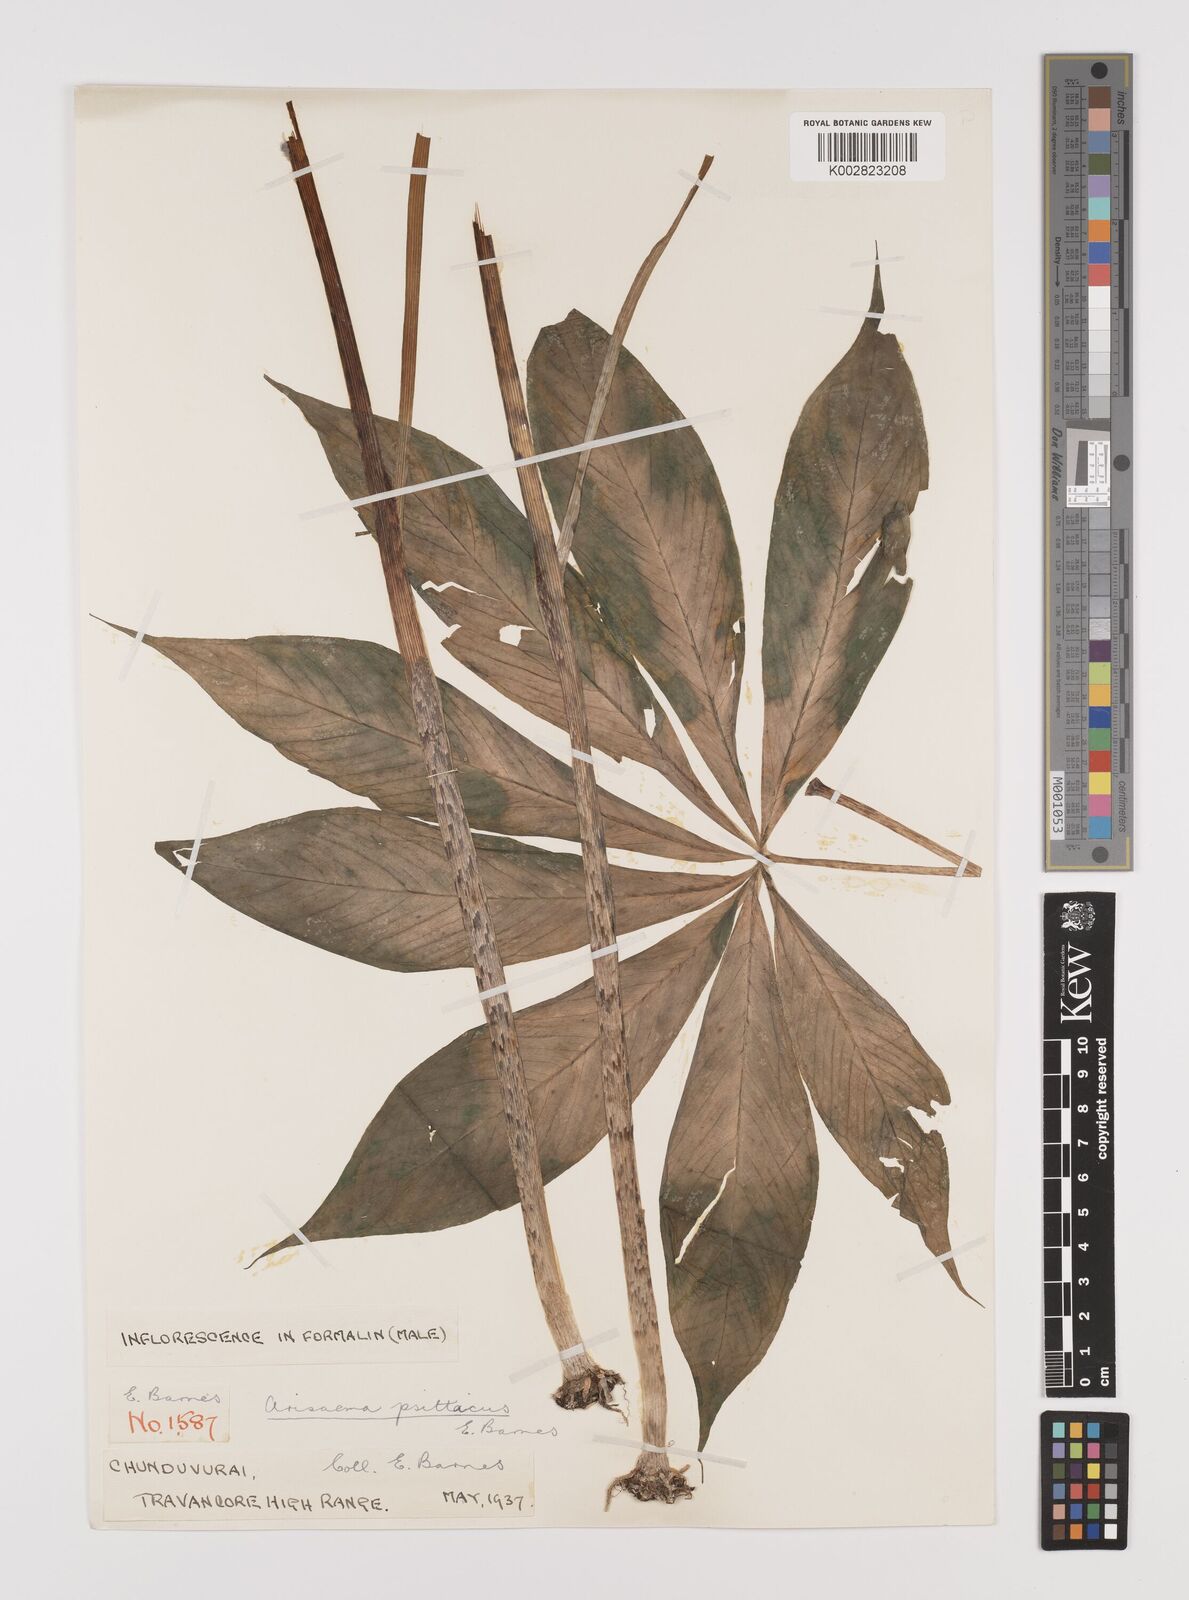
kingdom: Plantae
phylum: Tracheophyta
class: Liliopsida
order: Alismatales
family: Araceae
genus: Arisaema
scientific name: Arisaema psittacus
